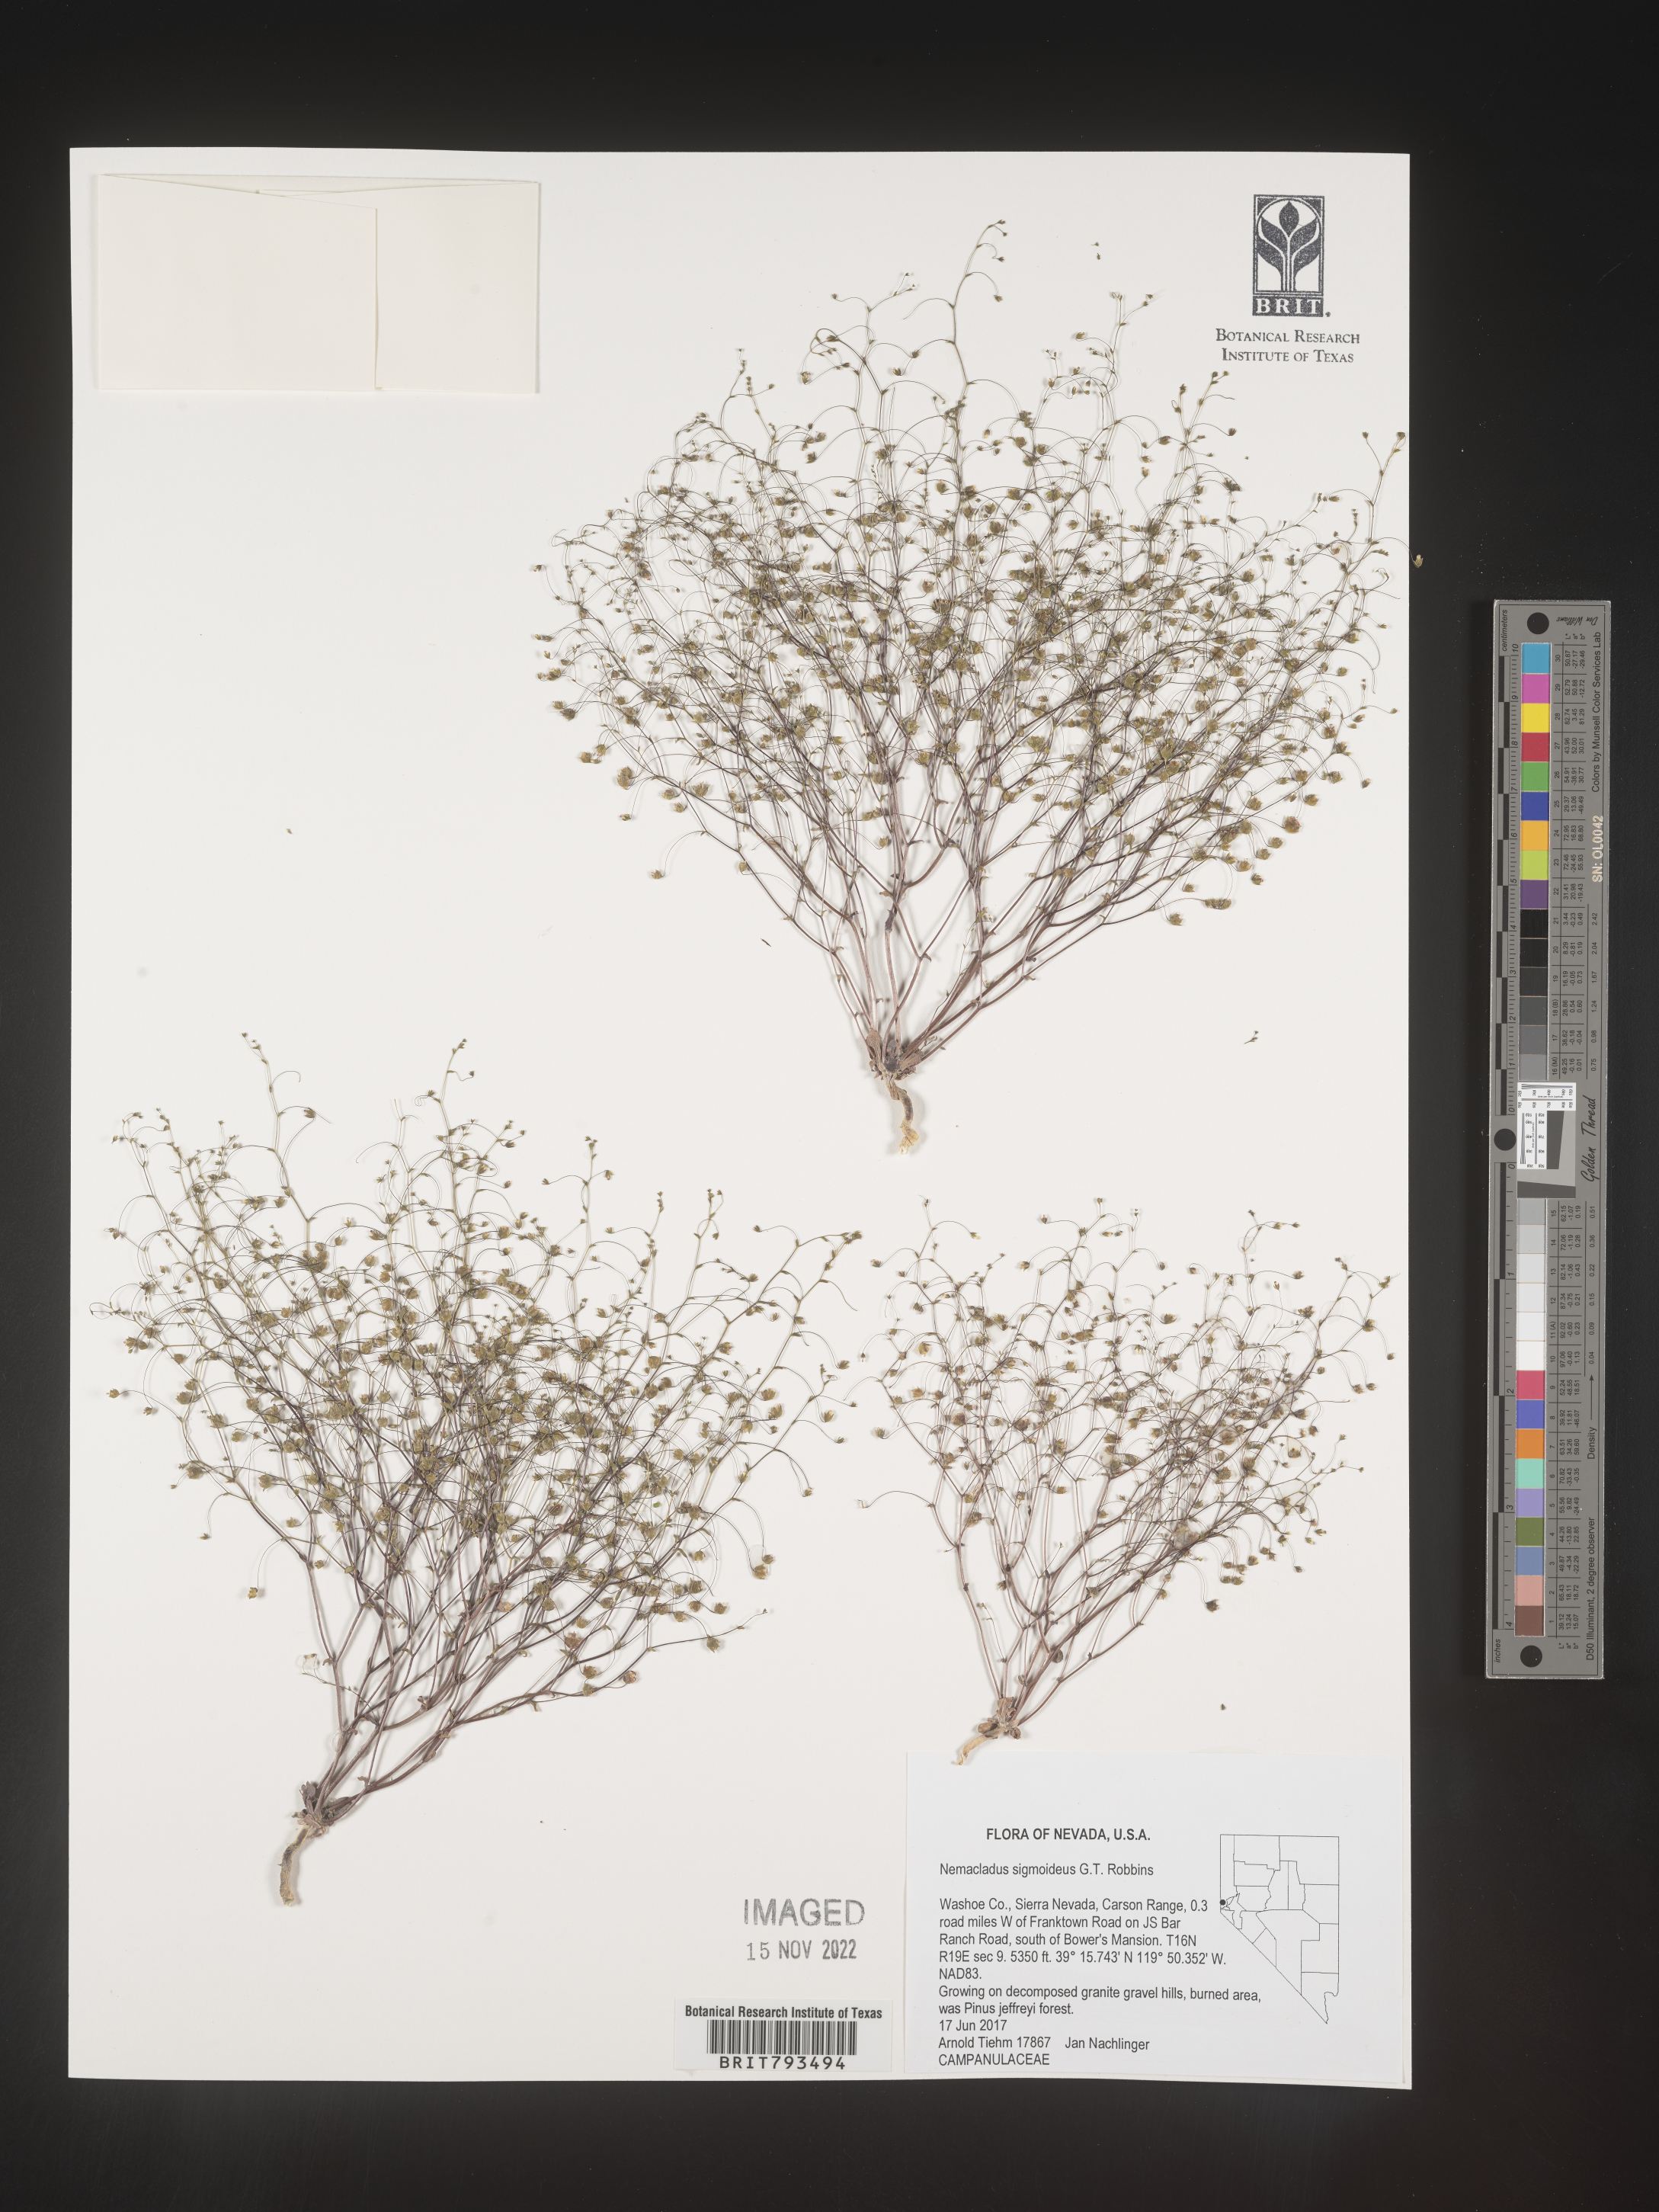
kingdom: Plantae
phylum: Tracheophyta
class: Magnoliopsida
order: Asterales
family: Campanulaceae
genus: Nemacladus
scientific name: Nemacladus sigmoideus
